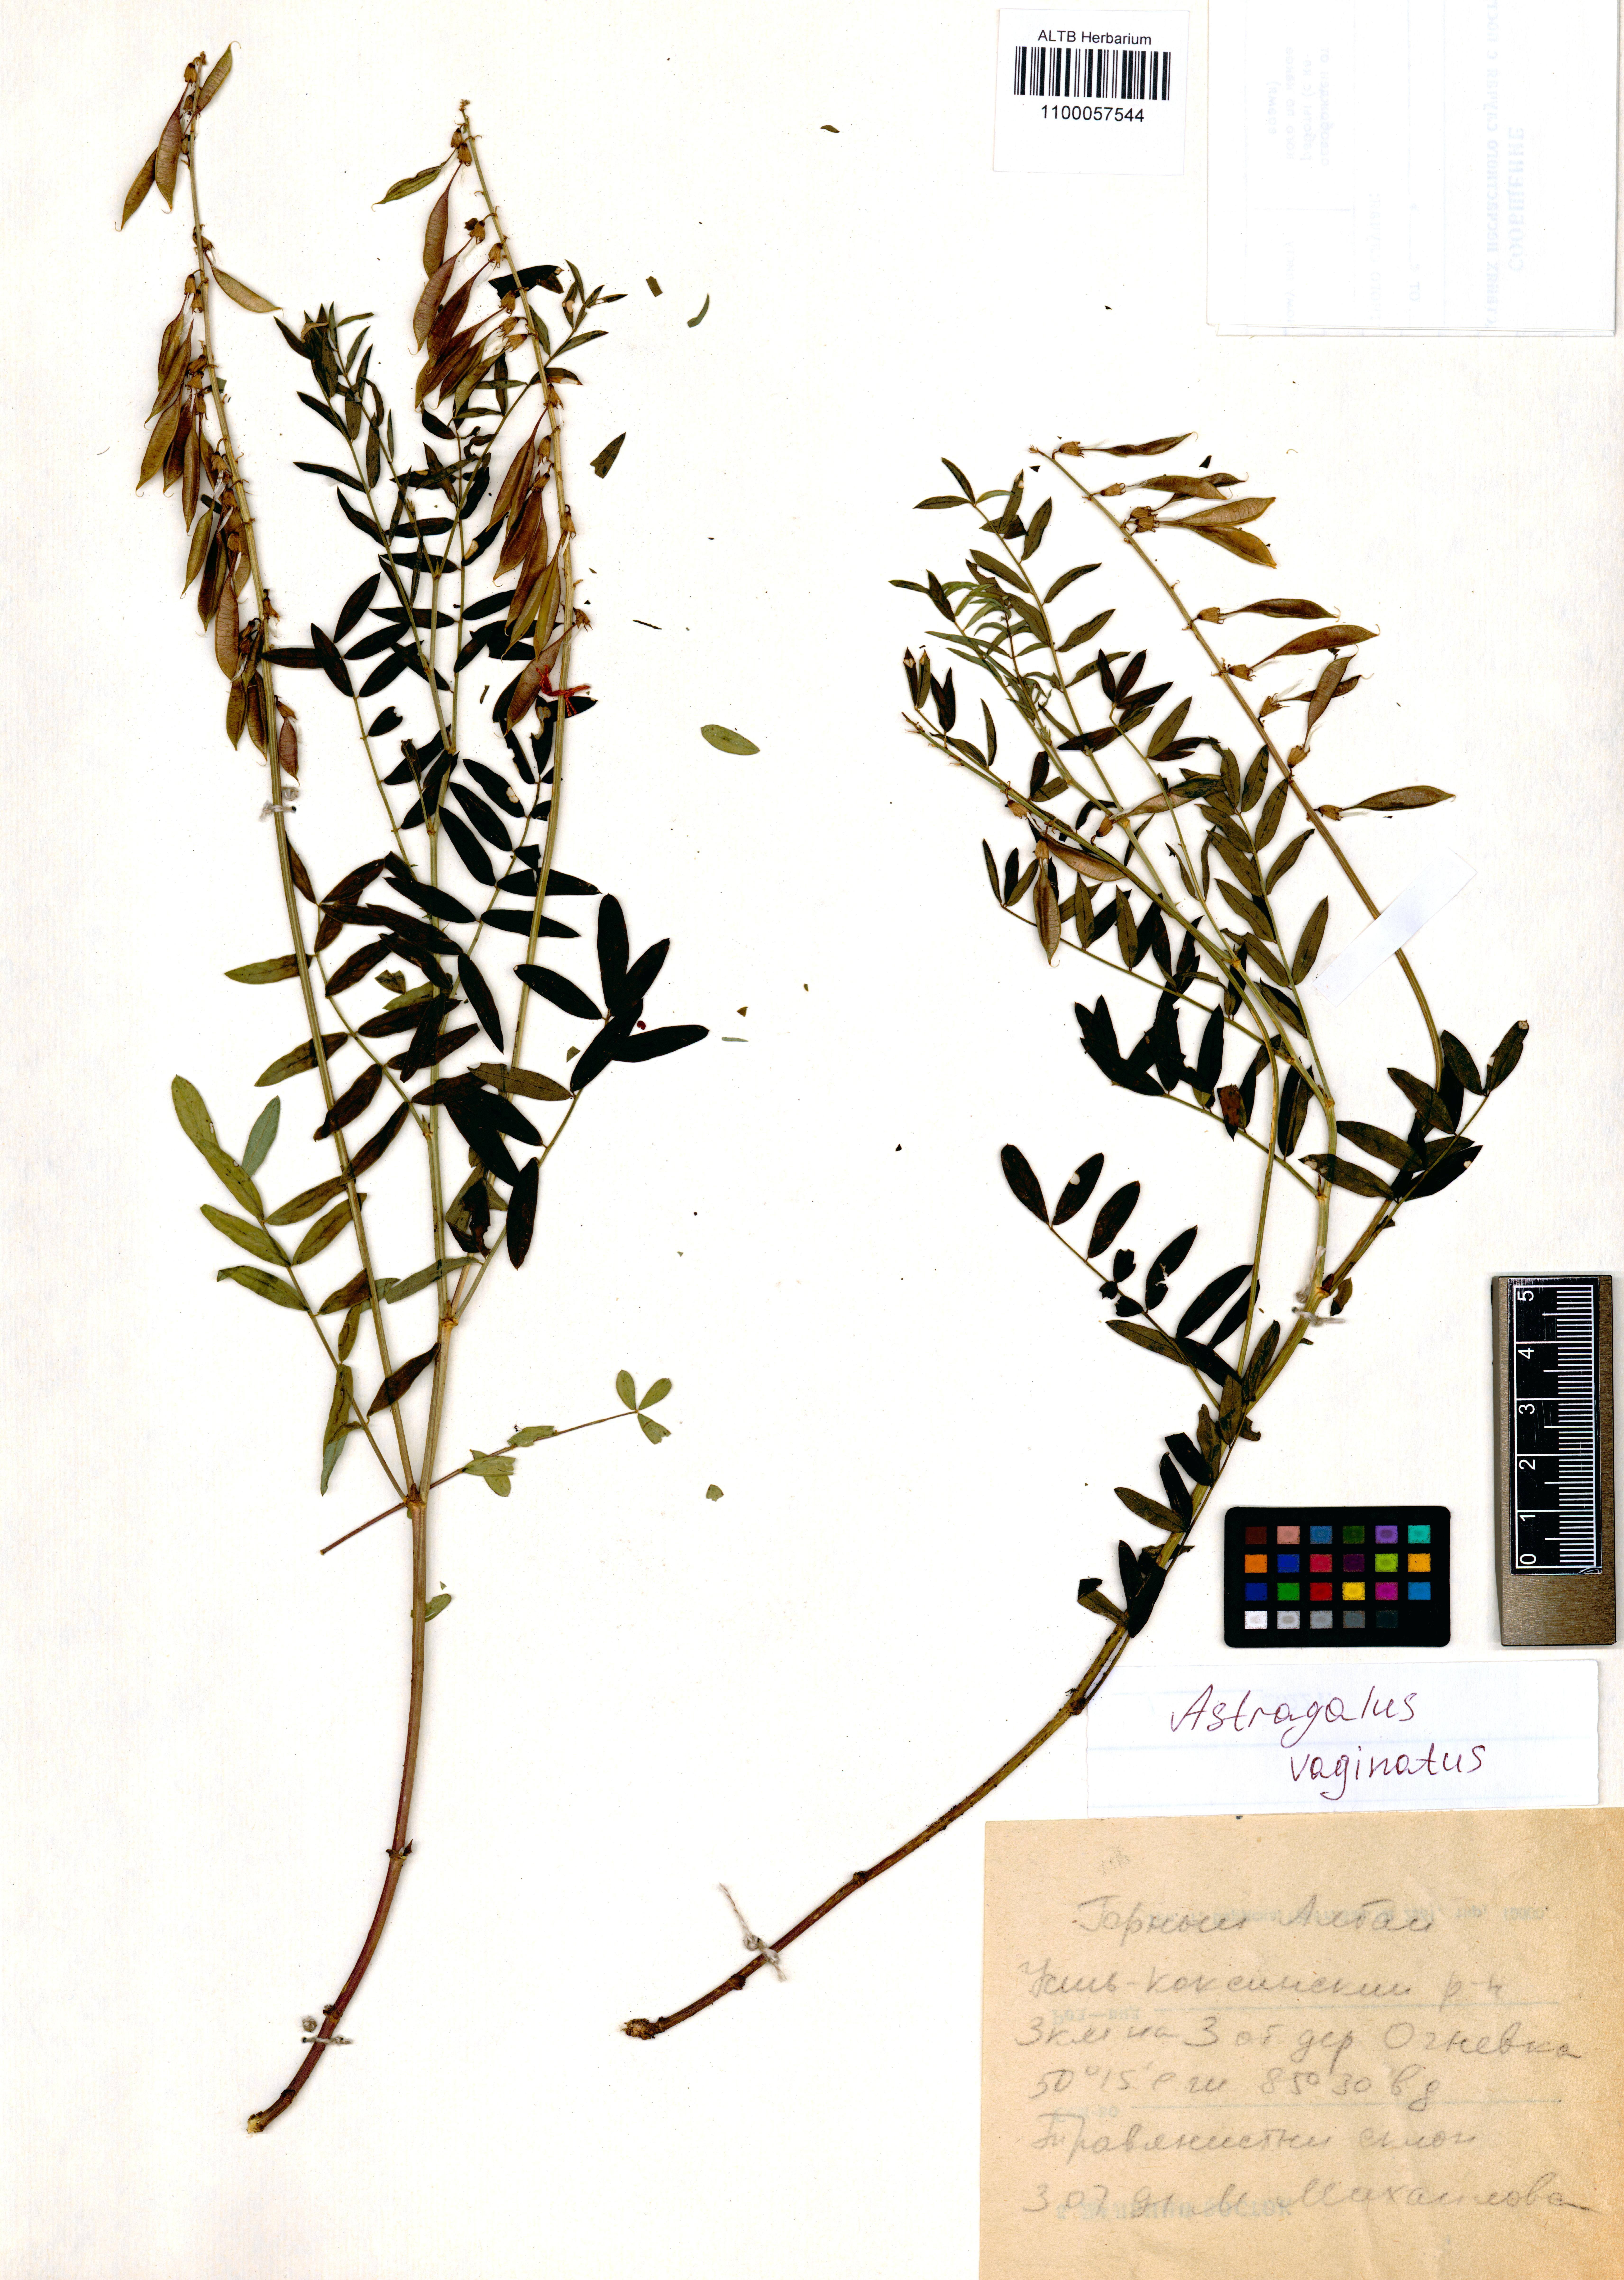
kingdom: Plantae
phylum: Tracheophyta
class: Magnoliopsida
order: Fabales
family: Fabaceae
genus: Astragalus
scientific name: Astragalus vaginatus
